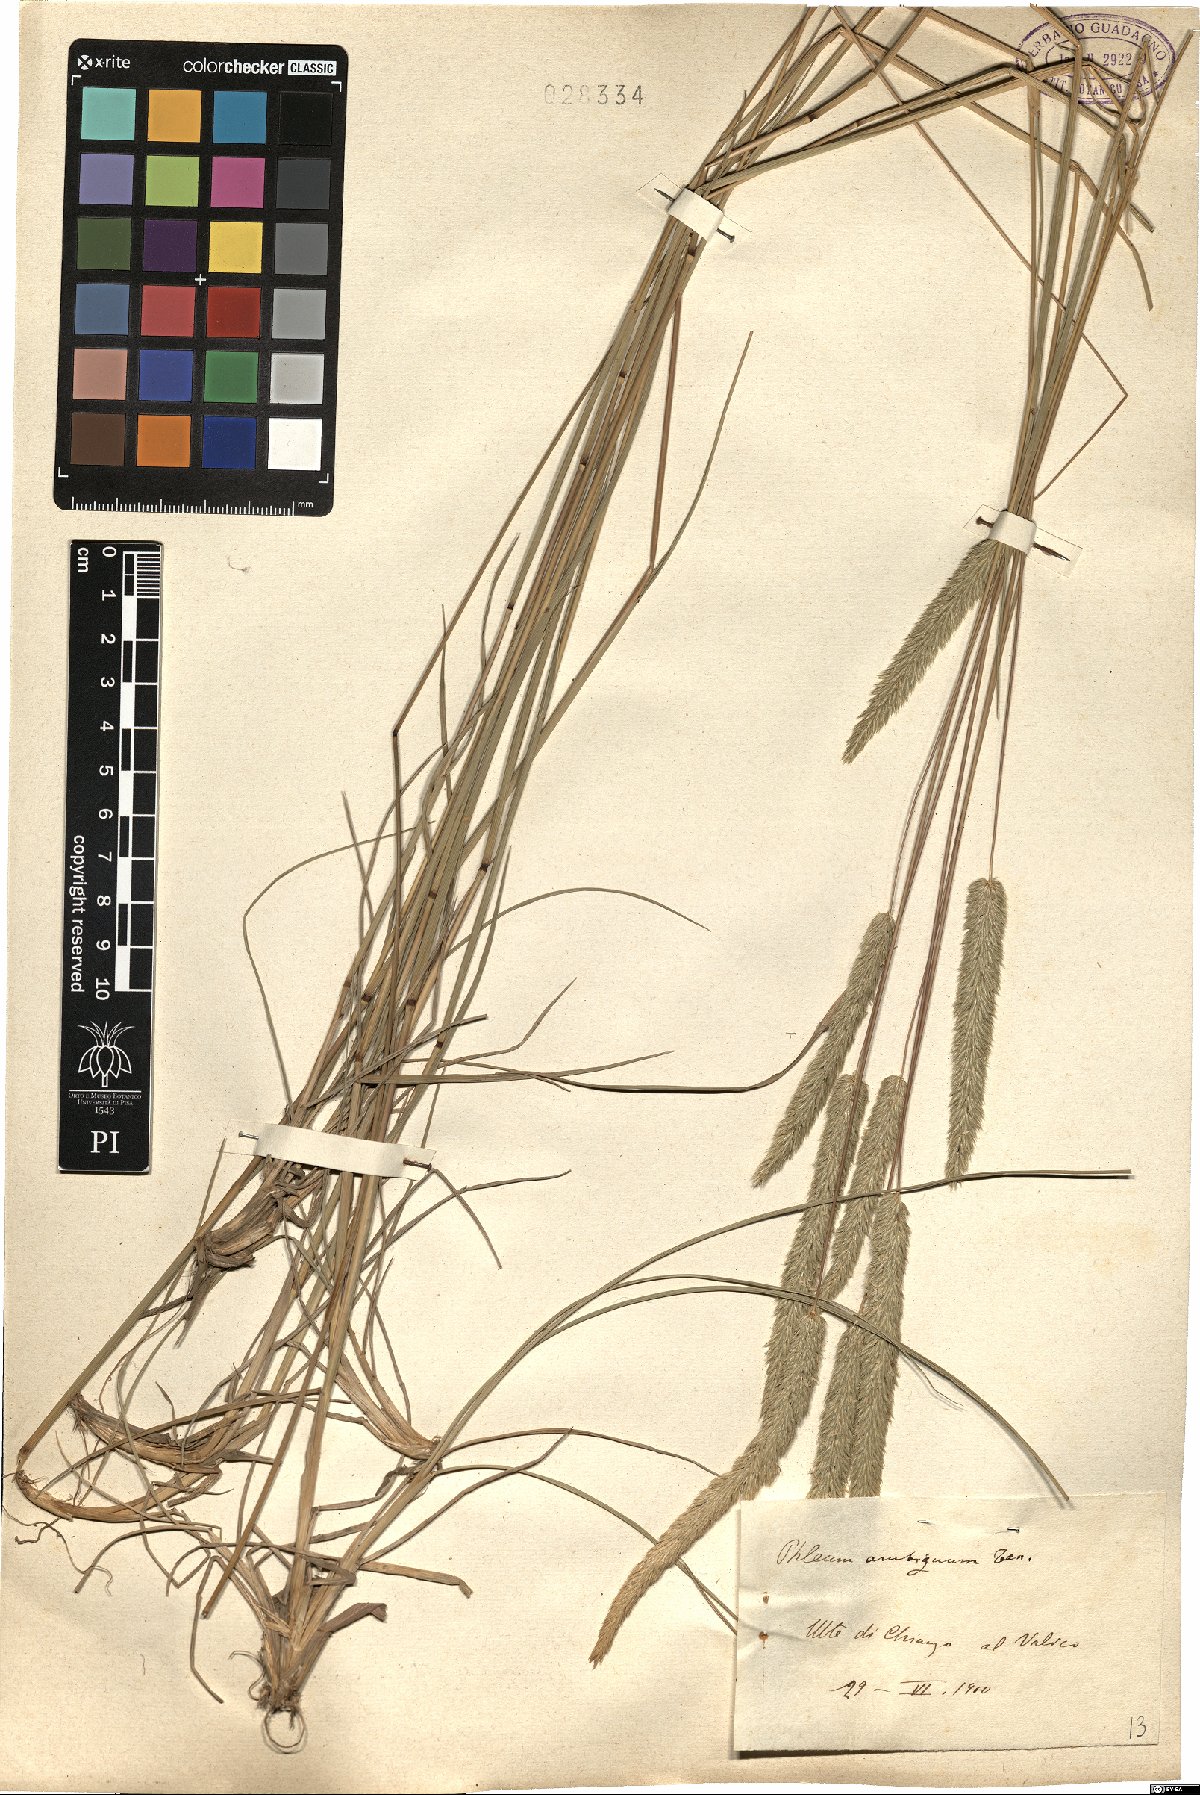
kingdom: Plantae
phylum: Tracheophyta
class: Liliopsida
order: Poales
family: Poaceae
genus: Phleum
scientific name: Phleum hirsutum
